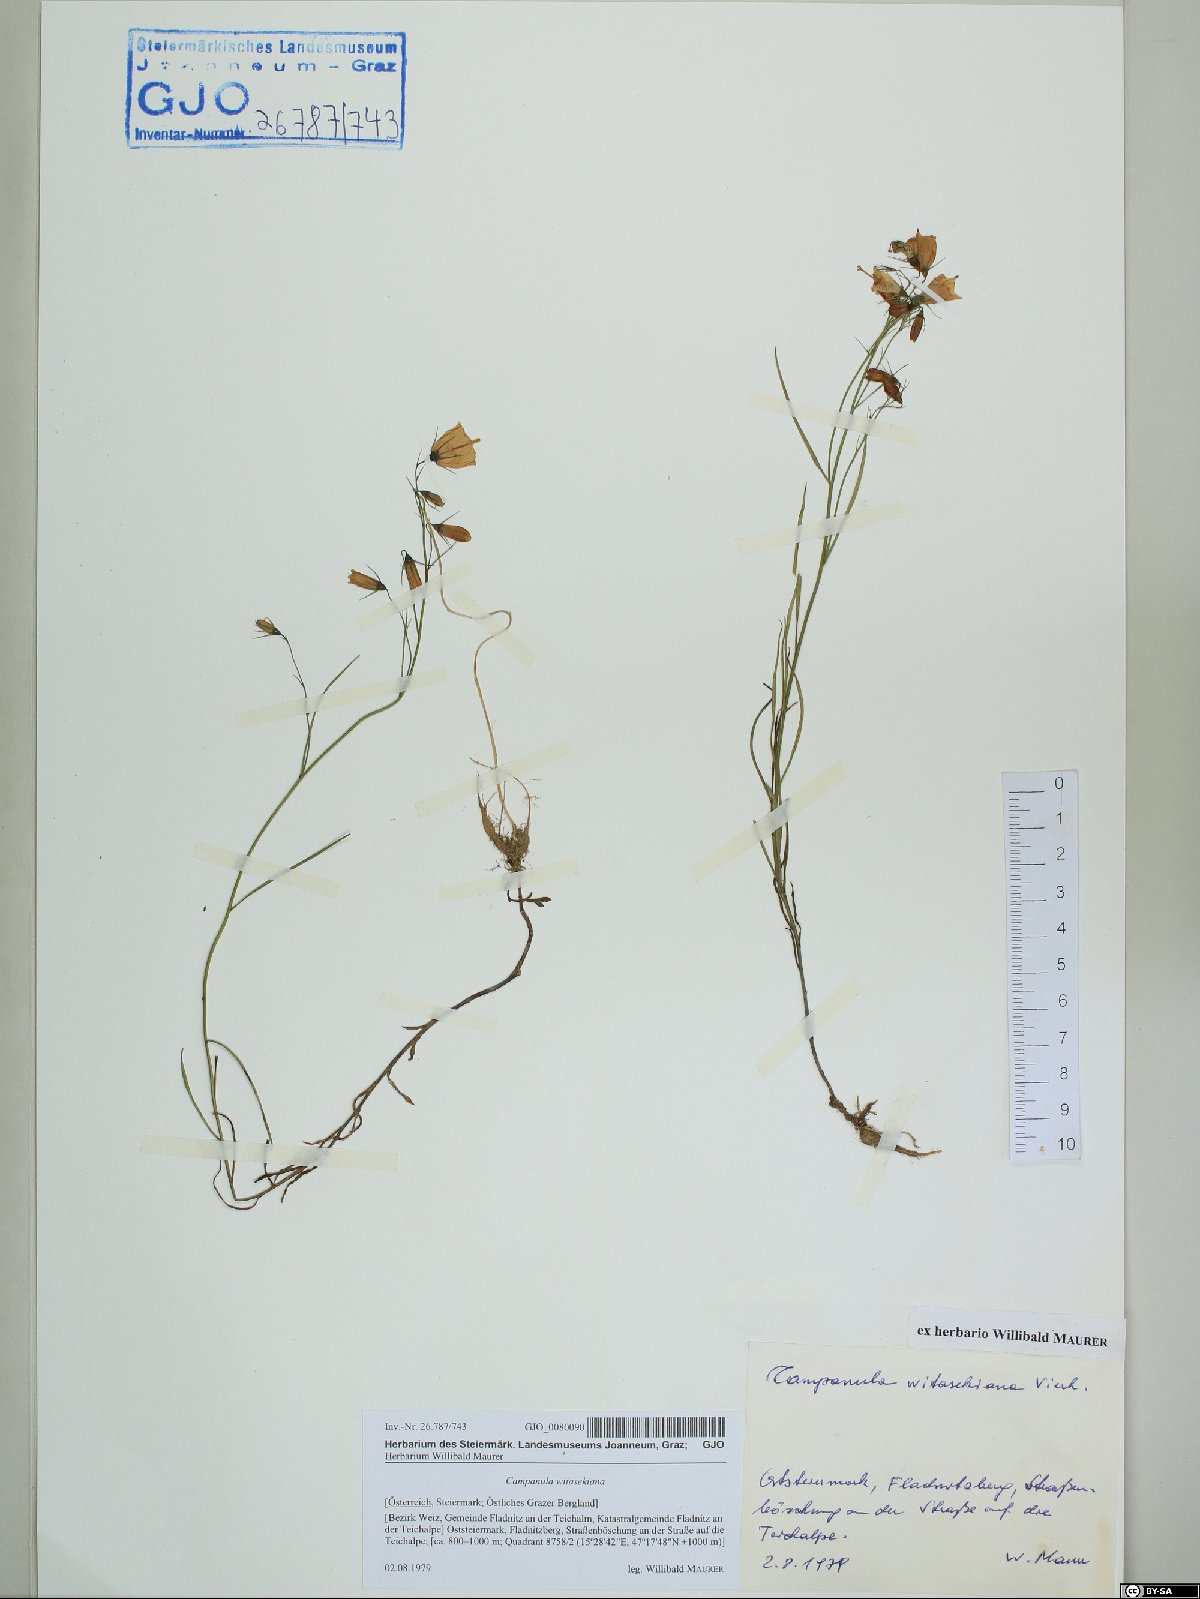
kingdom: Plantae
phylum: Tracheophyta
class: Magnoliopsida
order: Asterales
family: Campanulaceae
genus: Campanula
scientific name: Campanula witasekiana
